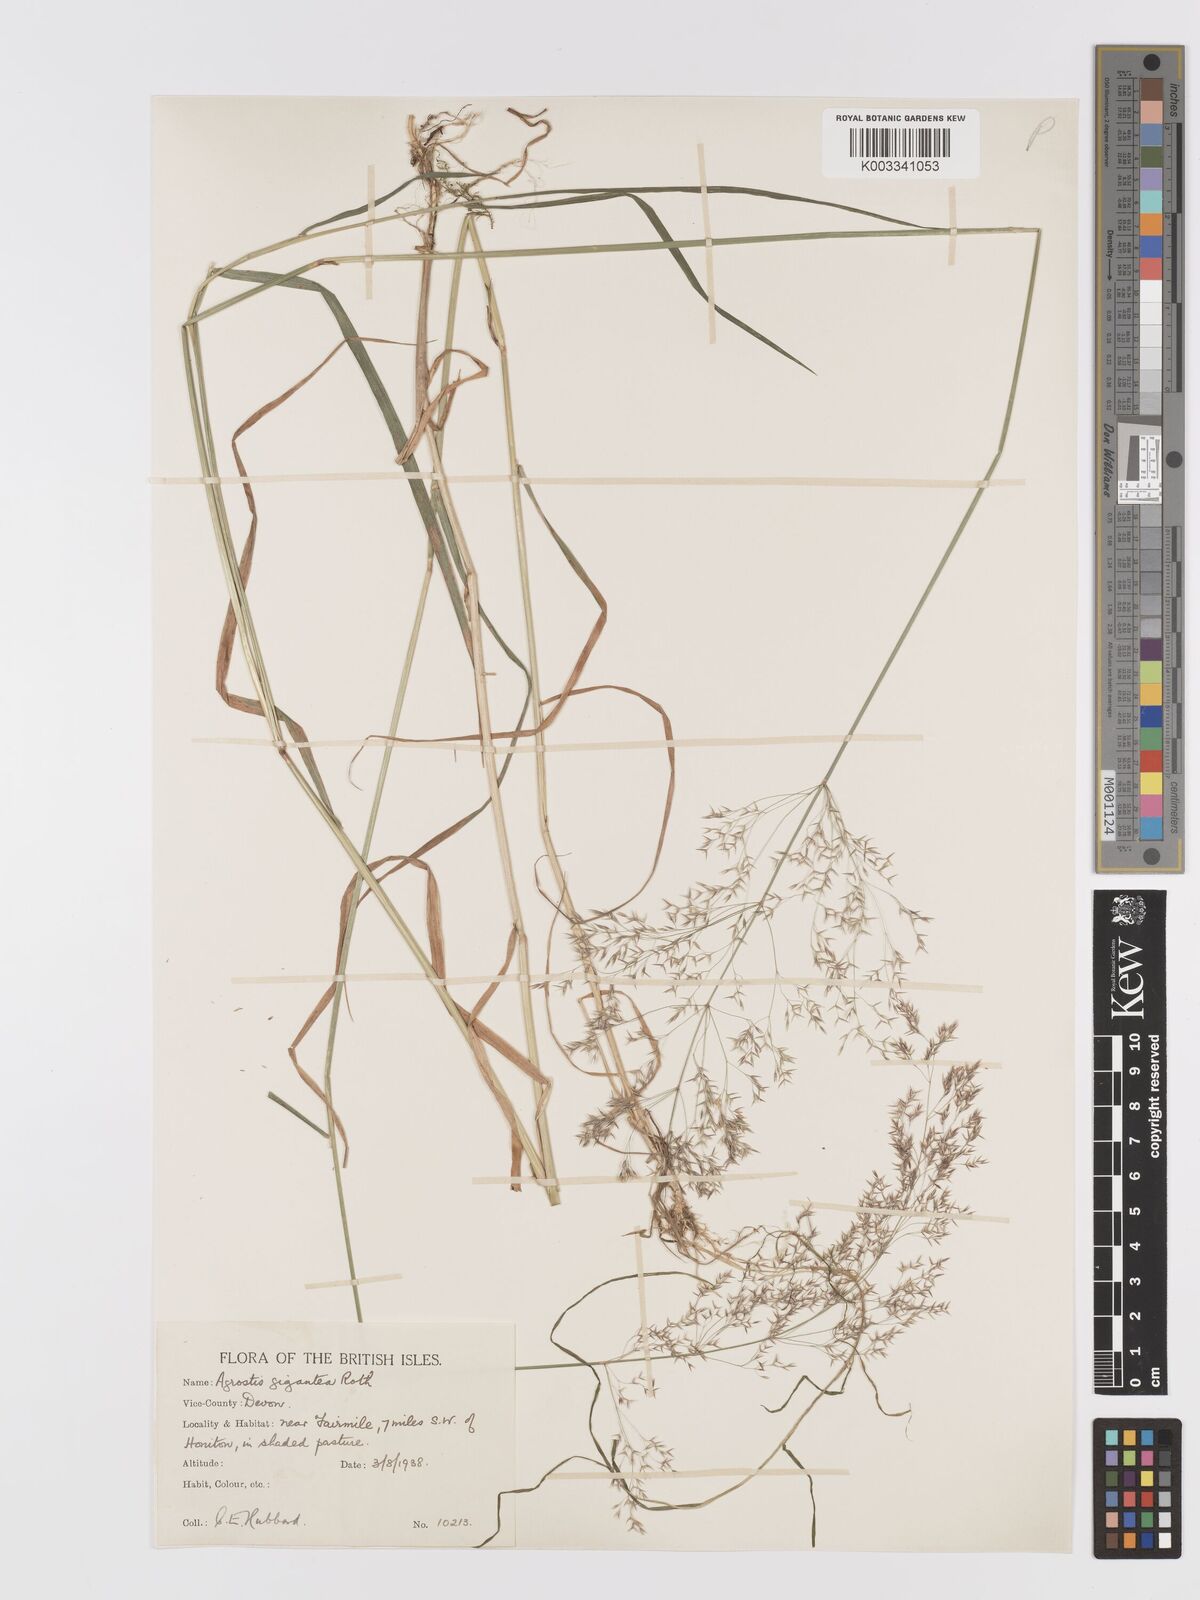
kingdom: Plantae
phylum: Tracheophyta
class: Liliopsida
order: Poales
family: Poaceae
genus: Agrostis
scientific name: Agrostis gigantea
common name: Black bent
